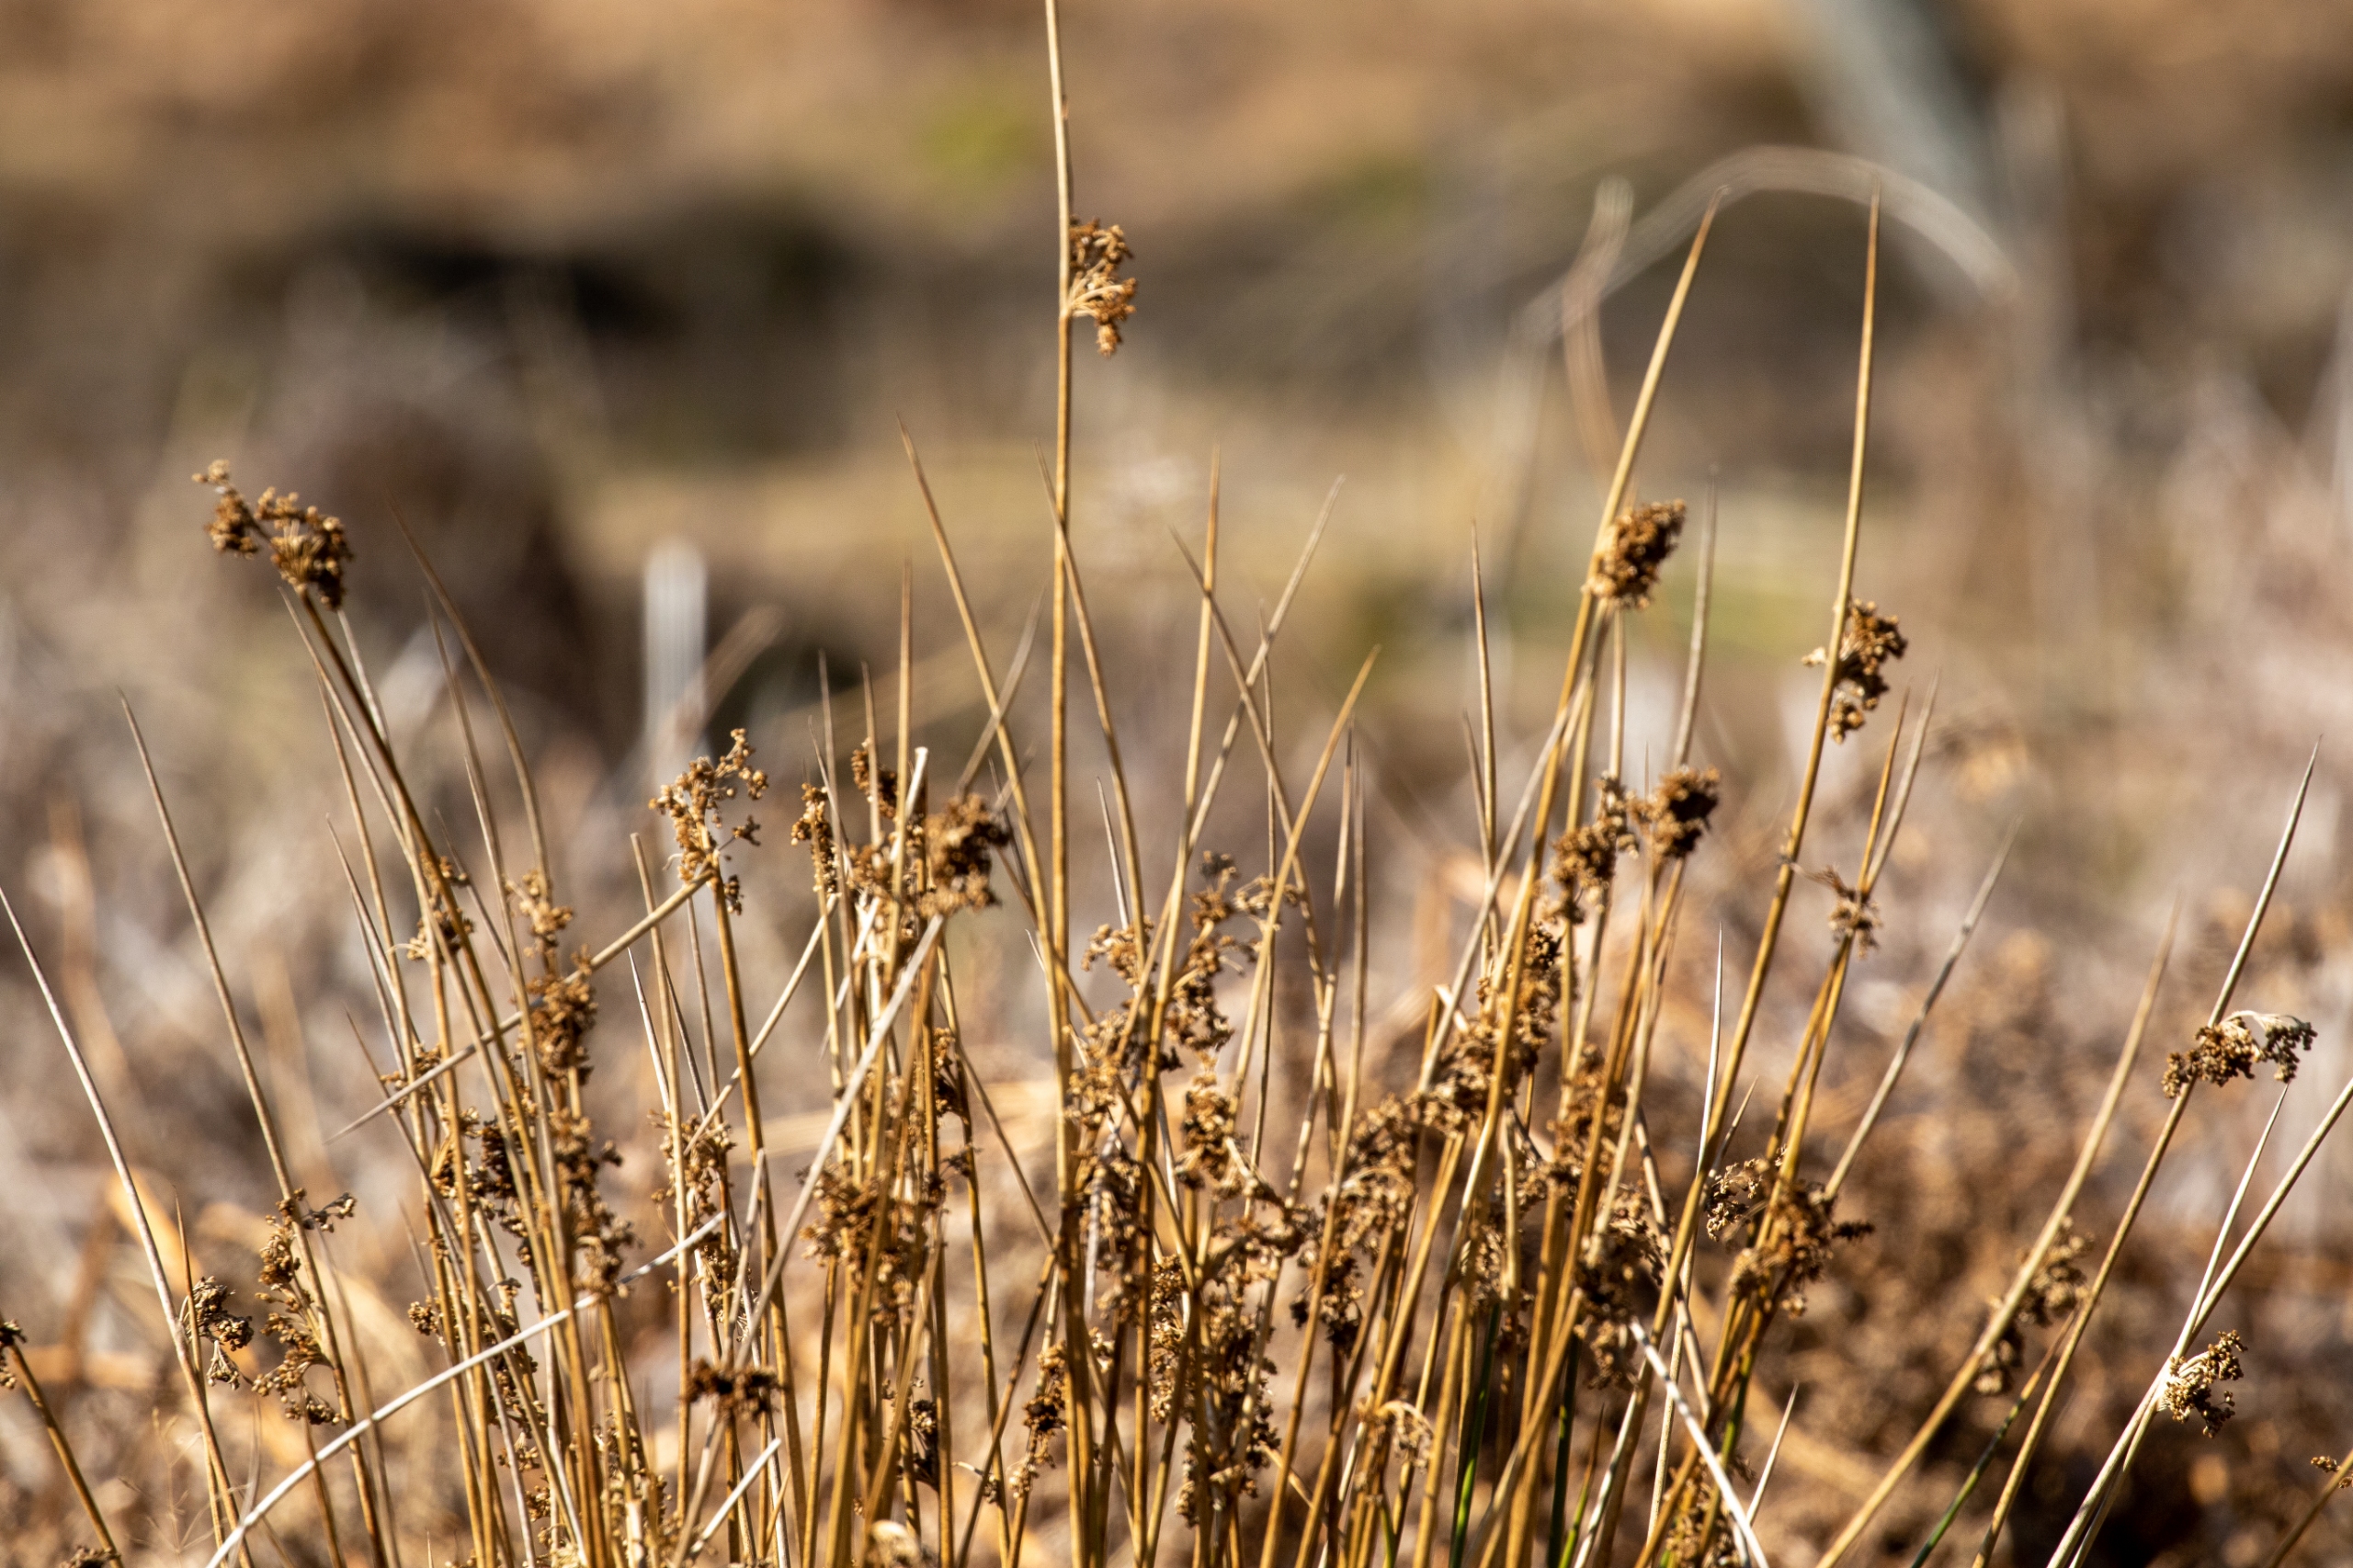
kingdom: Plantae
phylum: Tracheophyta
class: Liliopsida
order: Poales
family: Juncaceae
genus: Juncus
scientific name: Juncus effusus
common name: Lyse-siv
